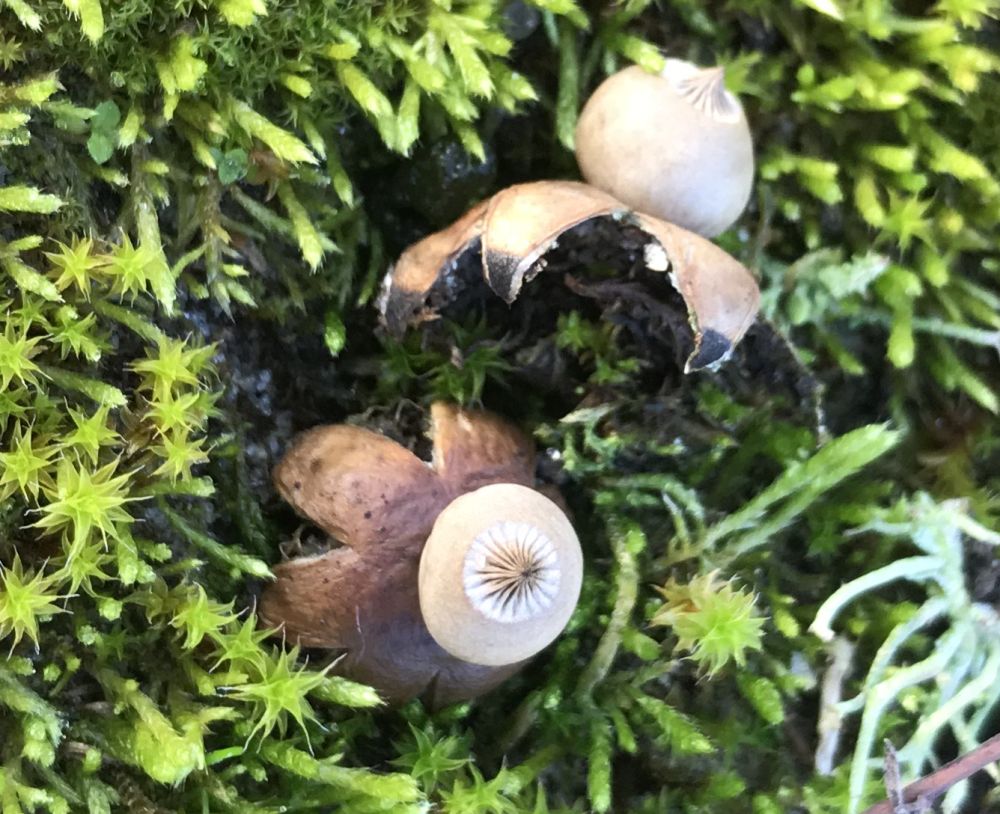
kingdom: Fungi
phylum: Basidiomycota
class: Agaricomycetes
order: Geastrales
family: Geastraceae
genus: Geastrum
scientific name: Geastrum striatum
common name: dværg-stjernebold
